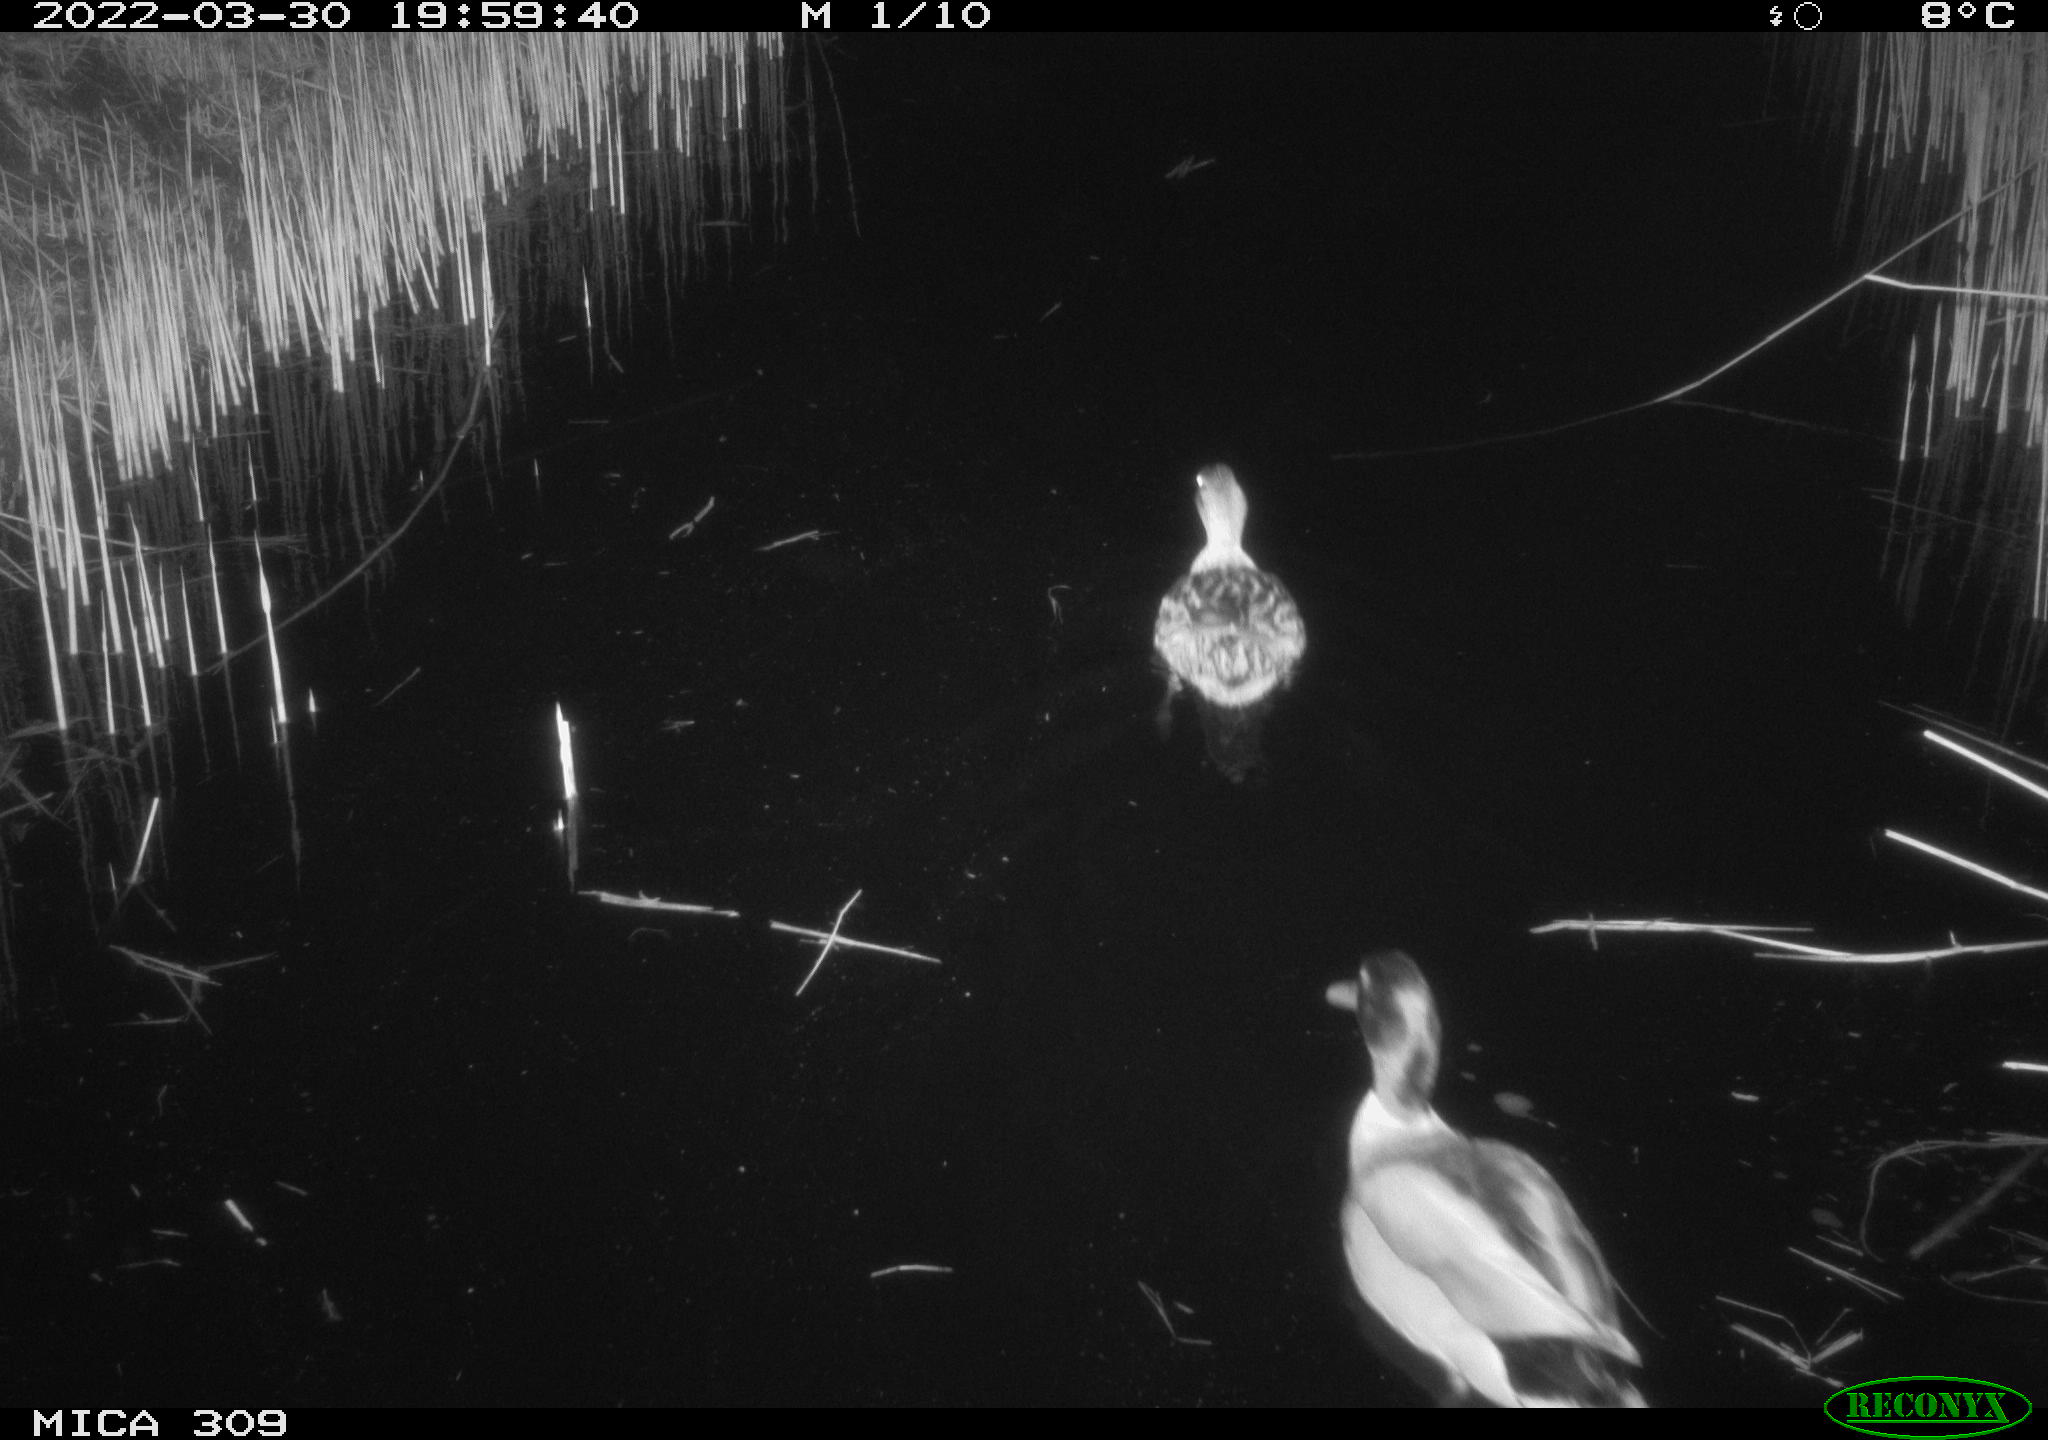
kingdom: Animalia
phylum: Chordata
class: Aves
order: Anseriformes
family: Anatidae
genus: Anas
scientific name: Anas platyrhynchos
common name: Mallard
